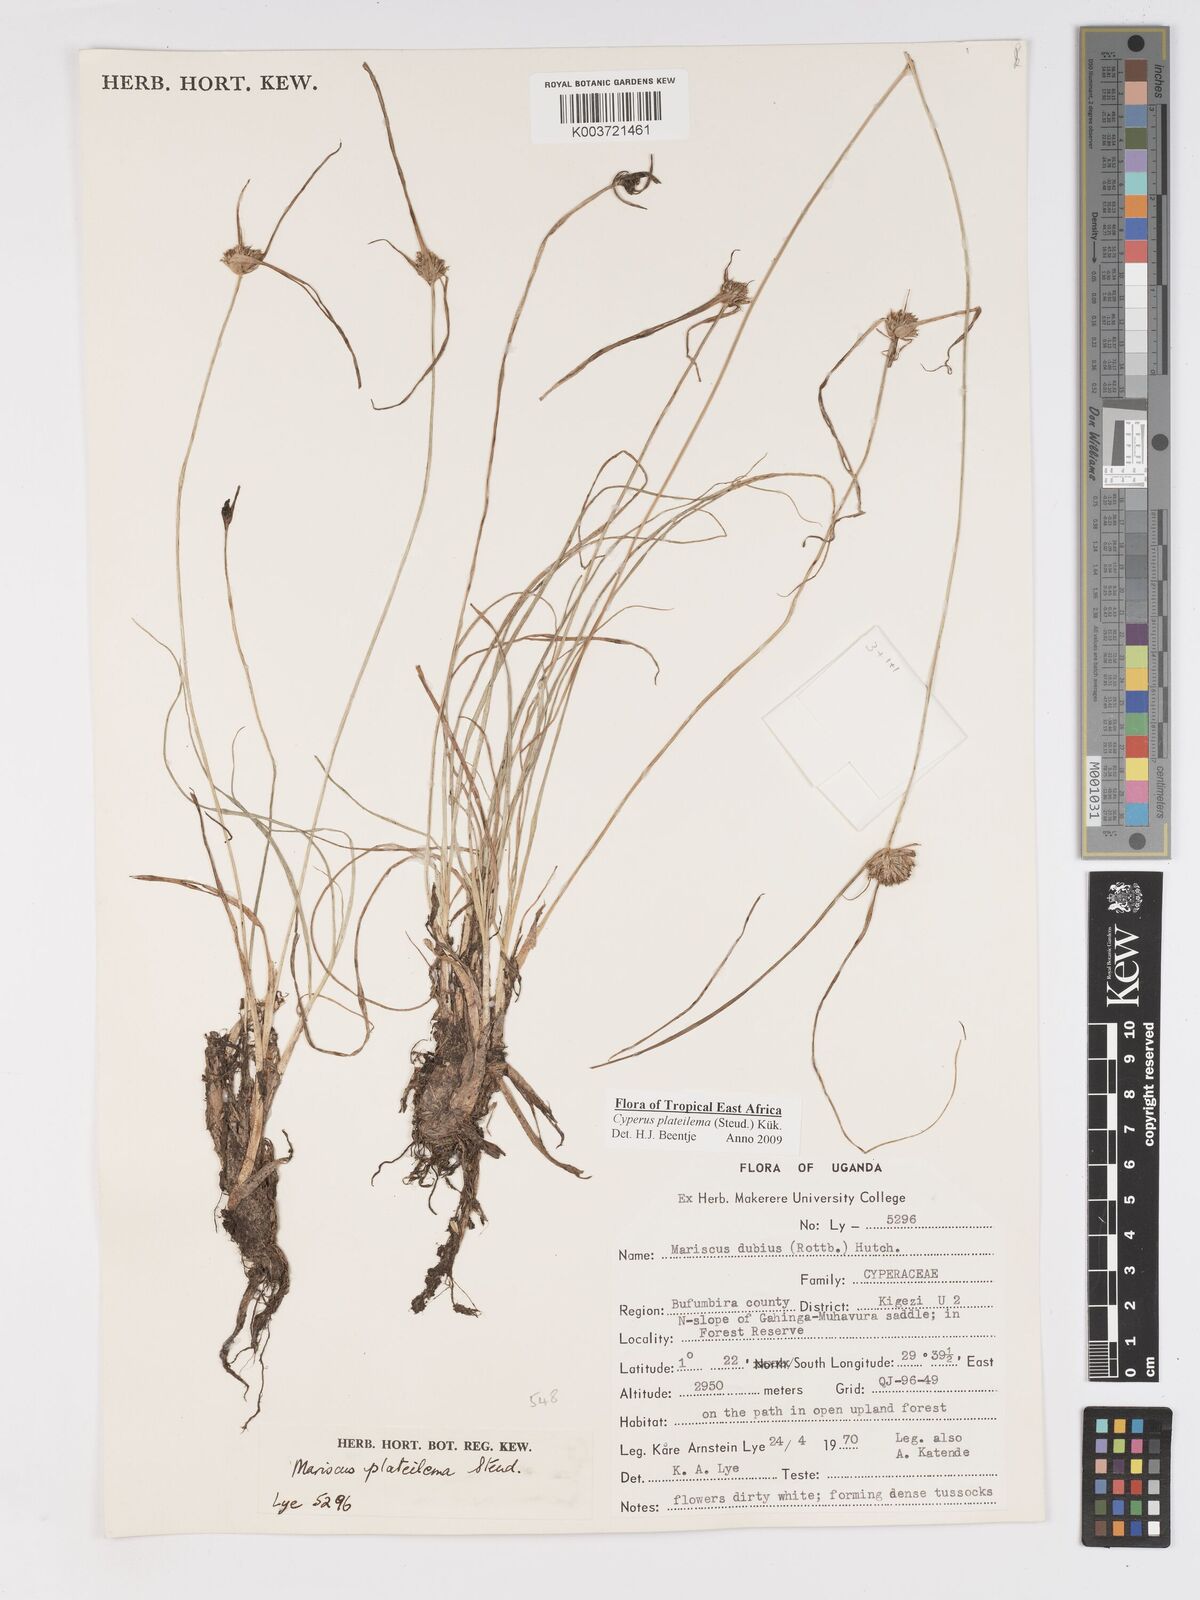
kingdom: Plantae
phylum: Tracheophyta
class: Liliopsida
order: Poales
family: Cyperaceae
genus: Cyperus
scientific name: Cyperus plateilema
